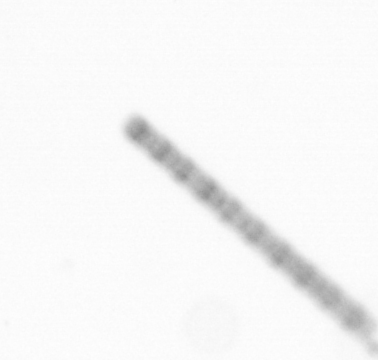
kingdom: Chromista
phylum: Ochrophyta
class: Bacillariophyceae
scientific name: Bacillariophyceae
